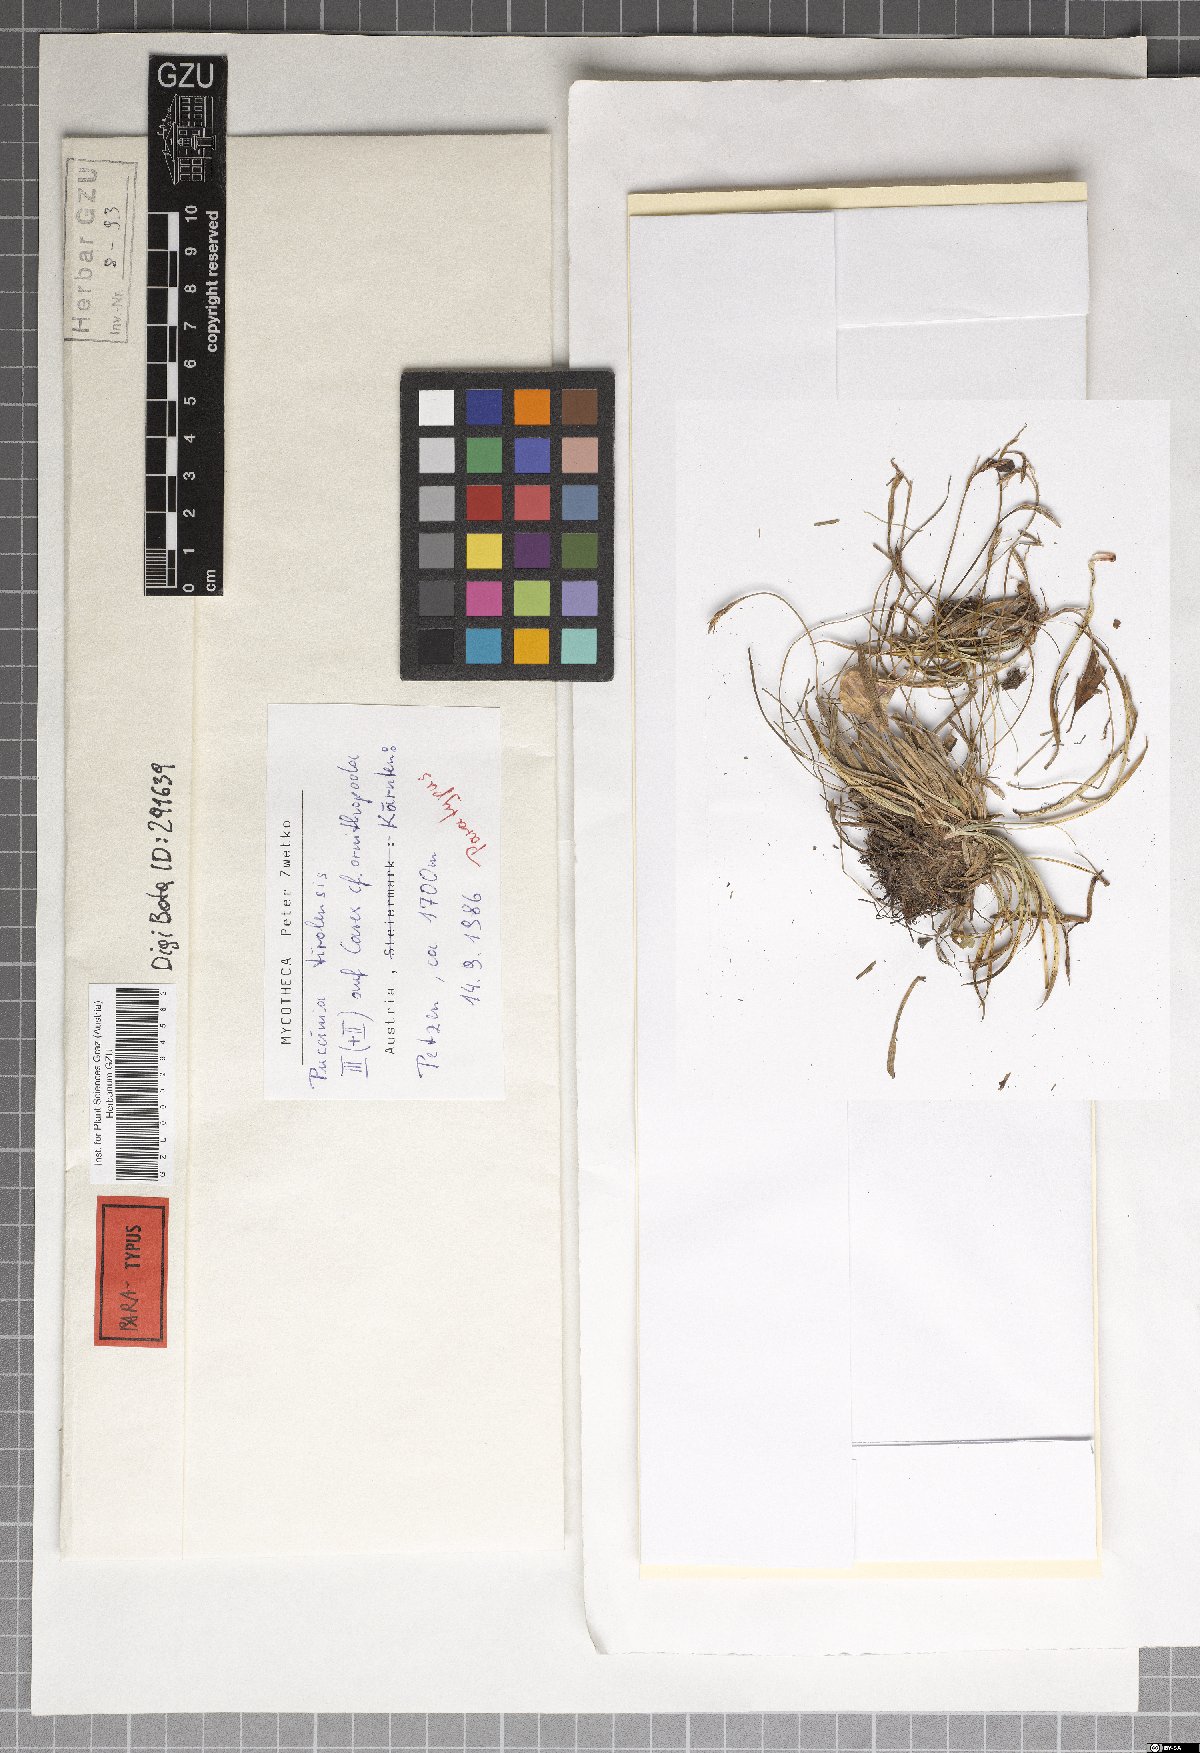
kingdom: Fungi
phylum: Basidiomycota
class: Pucciniomycetes
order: Pucciniales
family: Pucciniaceae
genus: Puccinia
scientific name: Puccinia tirolensis
